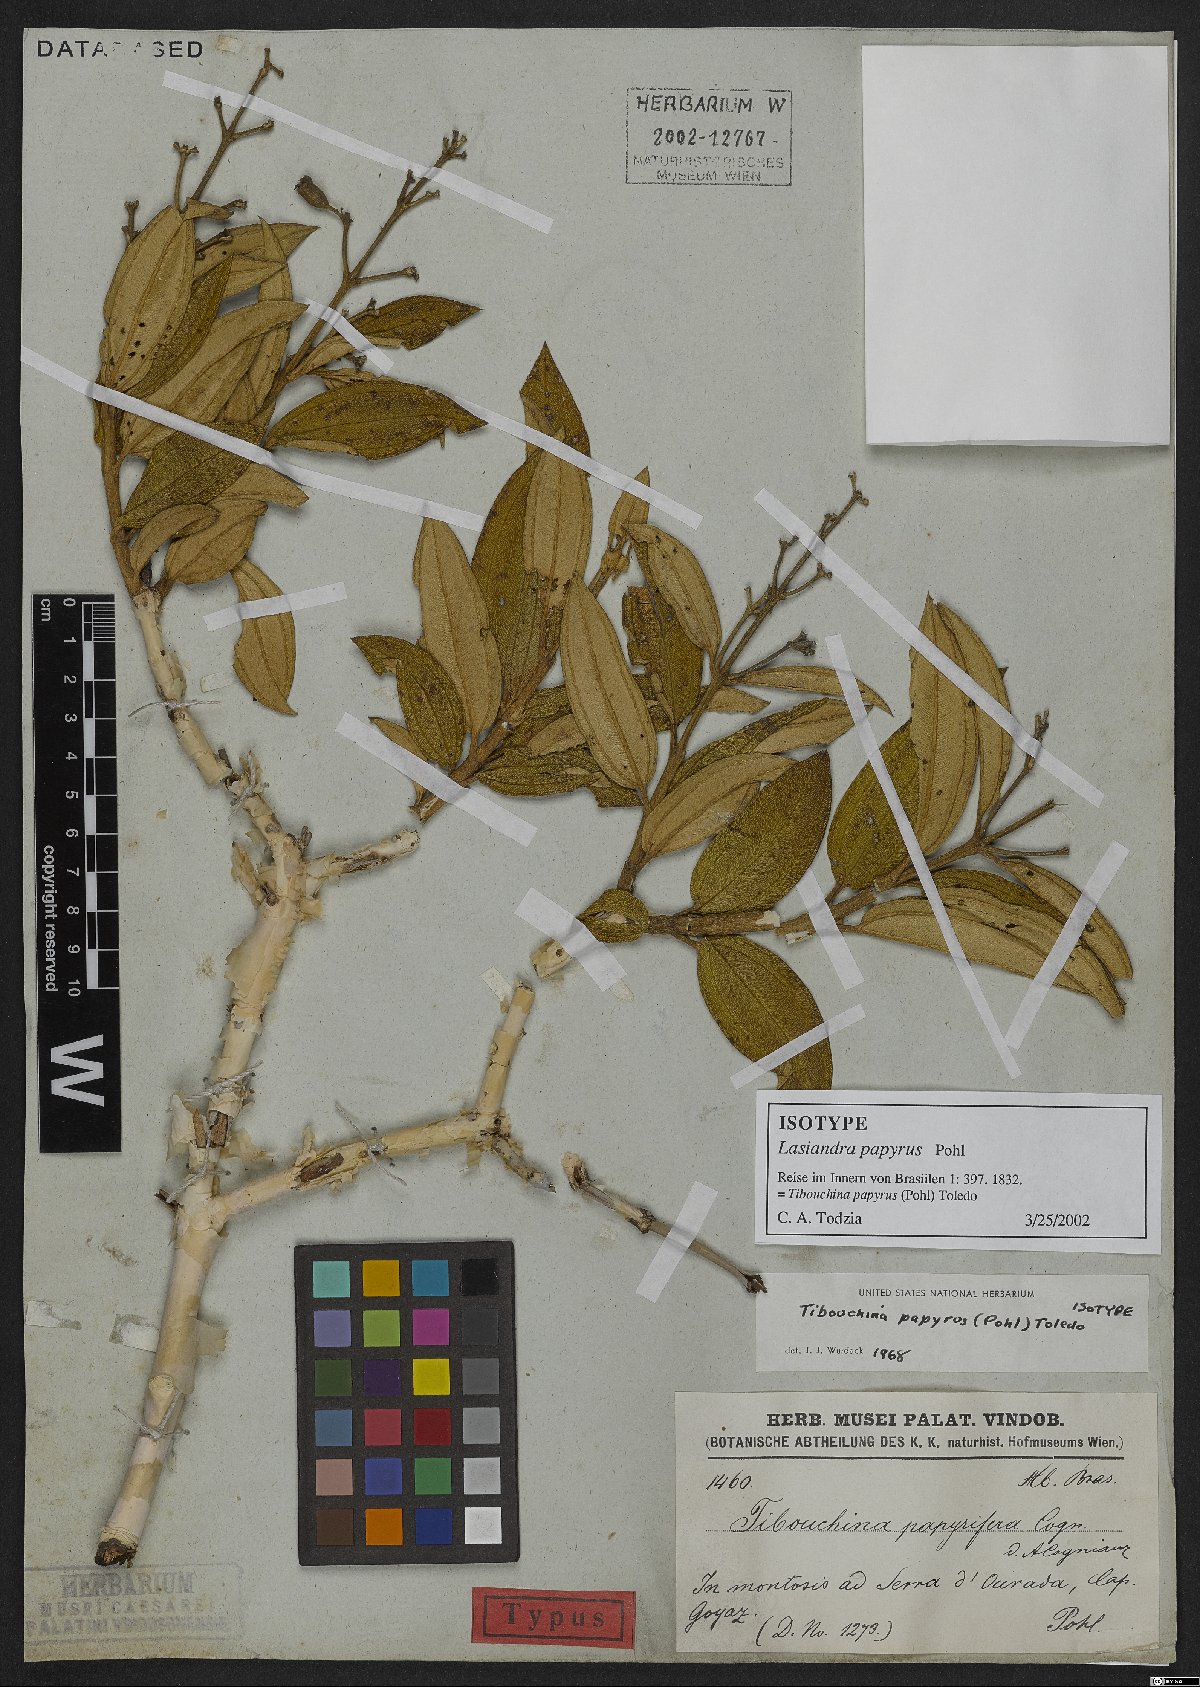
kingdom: Plantae
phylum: Tracheophyta
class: Magnoliopsida
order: Myrtales
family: Melastomataceae
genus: Pleroma
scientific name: Pleroma papyriferum
